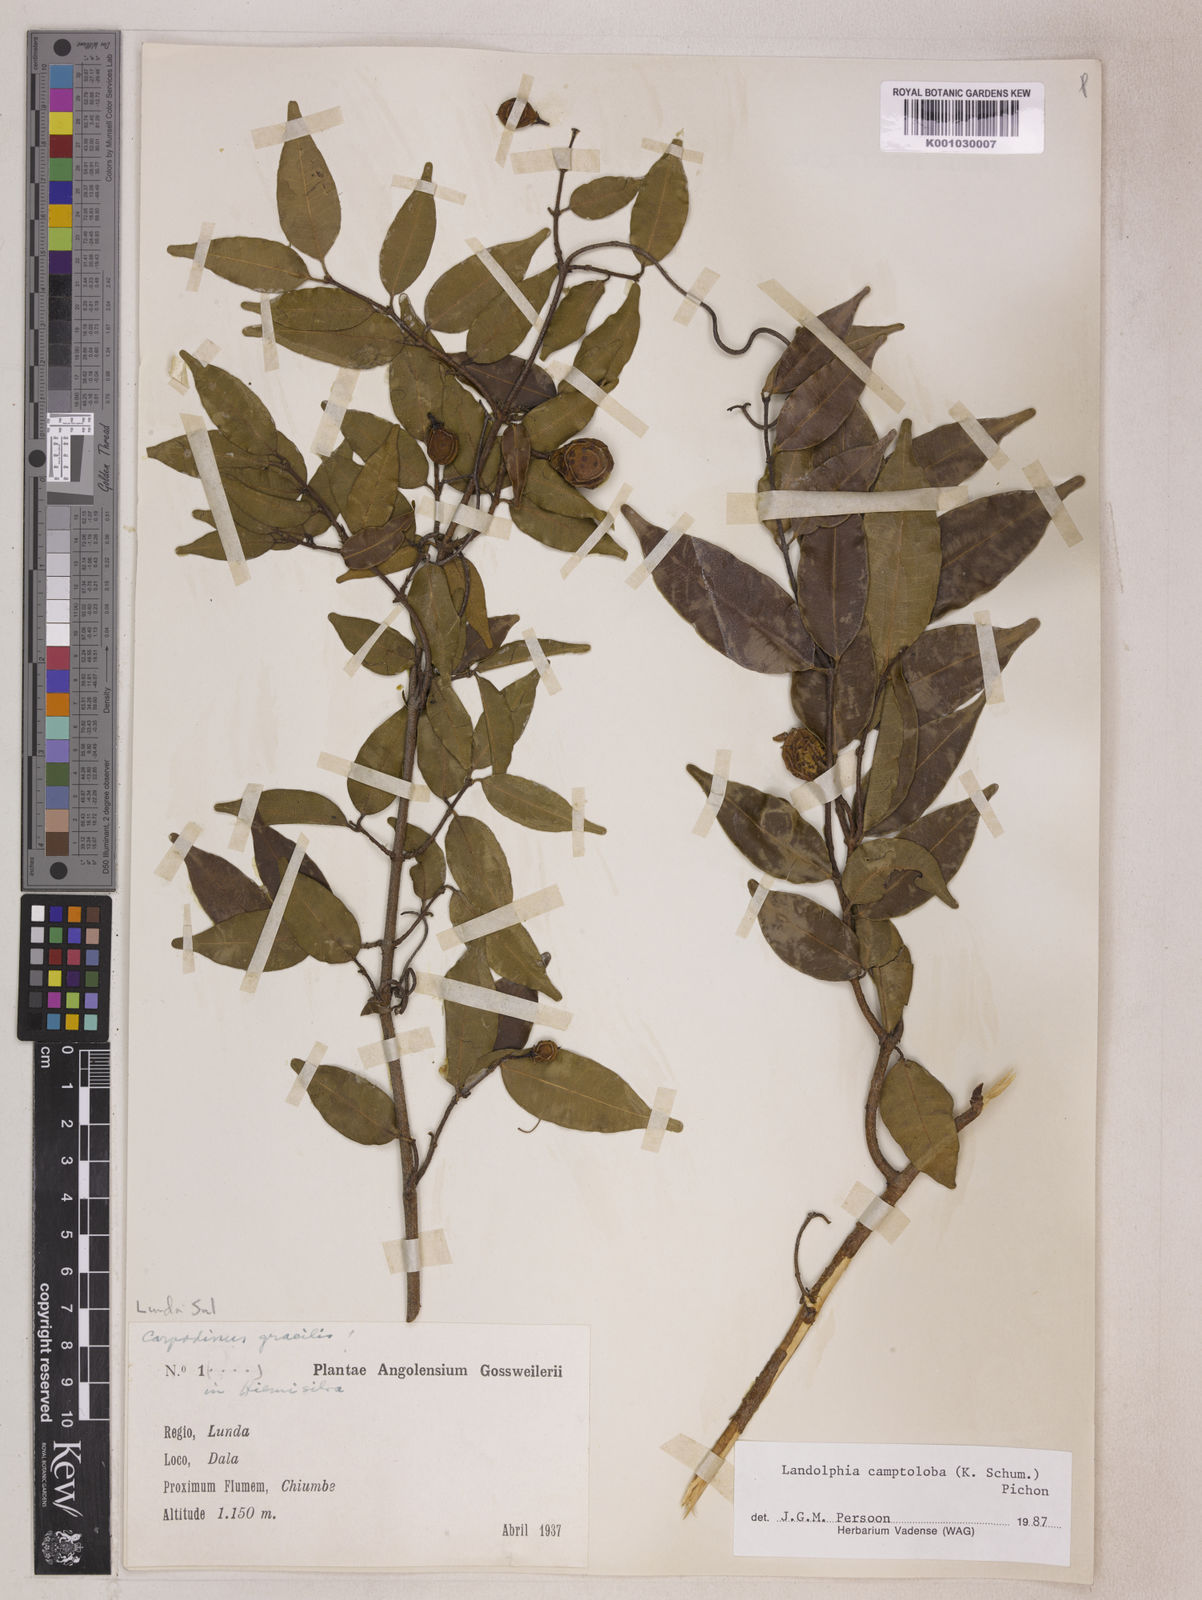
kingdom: Plantae
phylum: Tracheophyta
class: Magnoliopsida
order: Gentianales
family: Apocynaceae
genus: Landolphia
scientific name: Landolphia camptoloba
